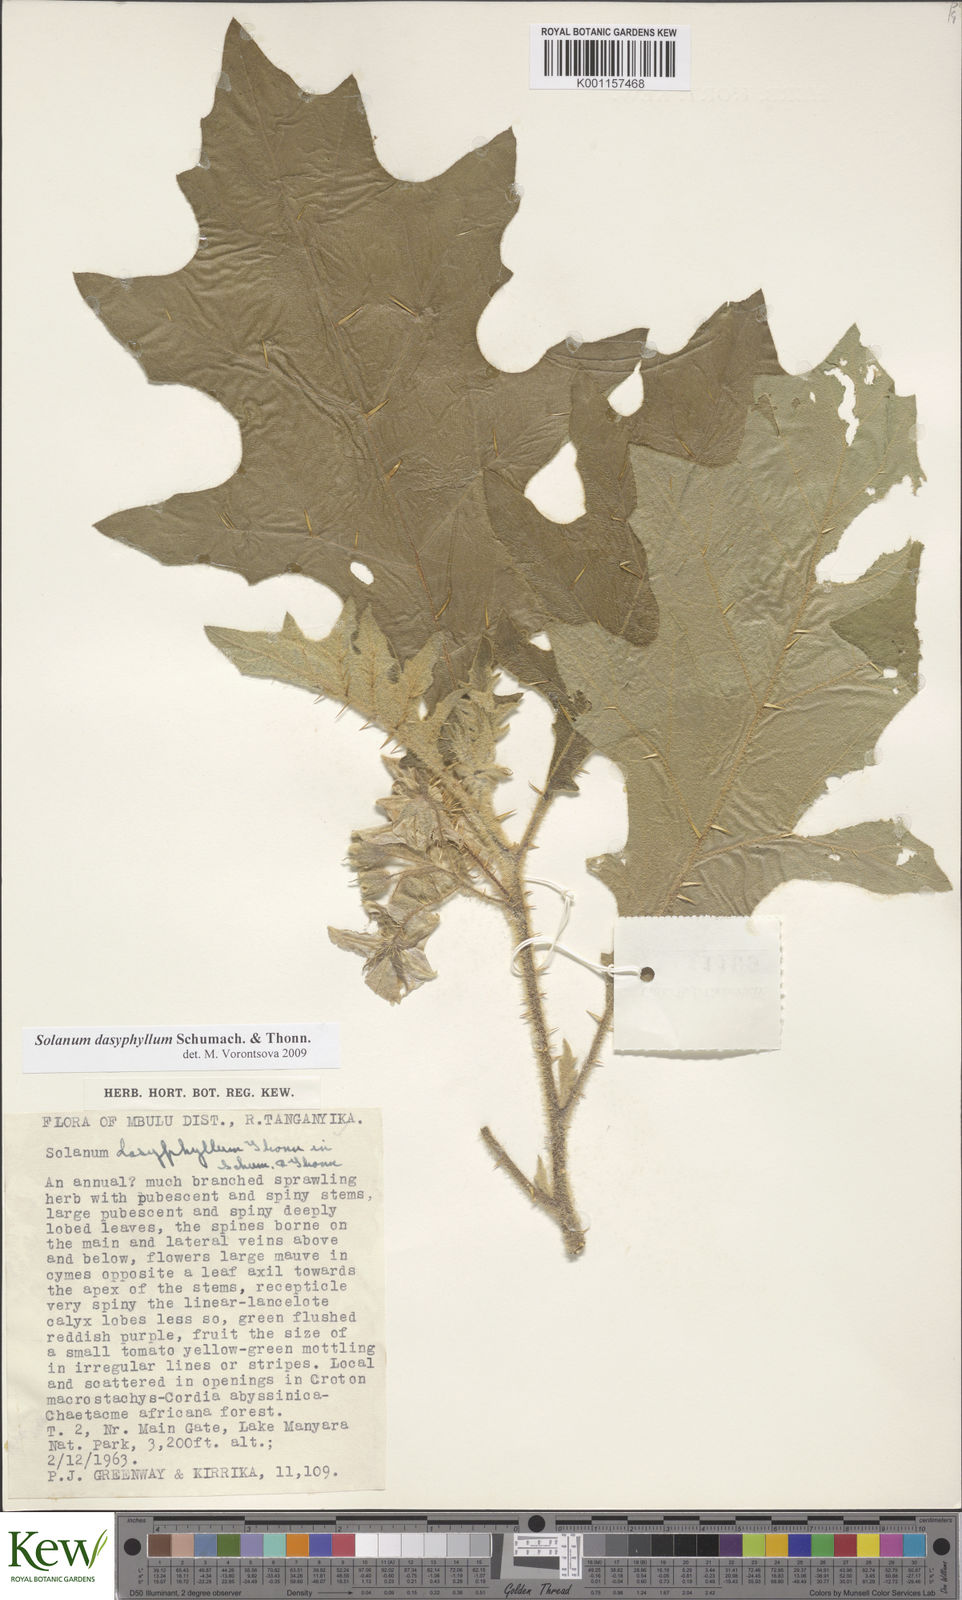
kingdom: Plantae
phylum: Tracheophyta
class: Magnoliopsida
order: Solanales
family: Solanaceae
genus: Solanum
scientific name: Solanum dasyphyllum
